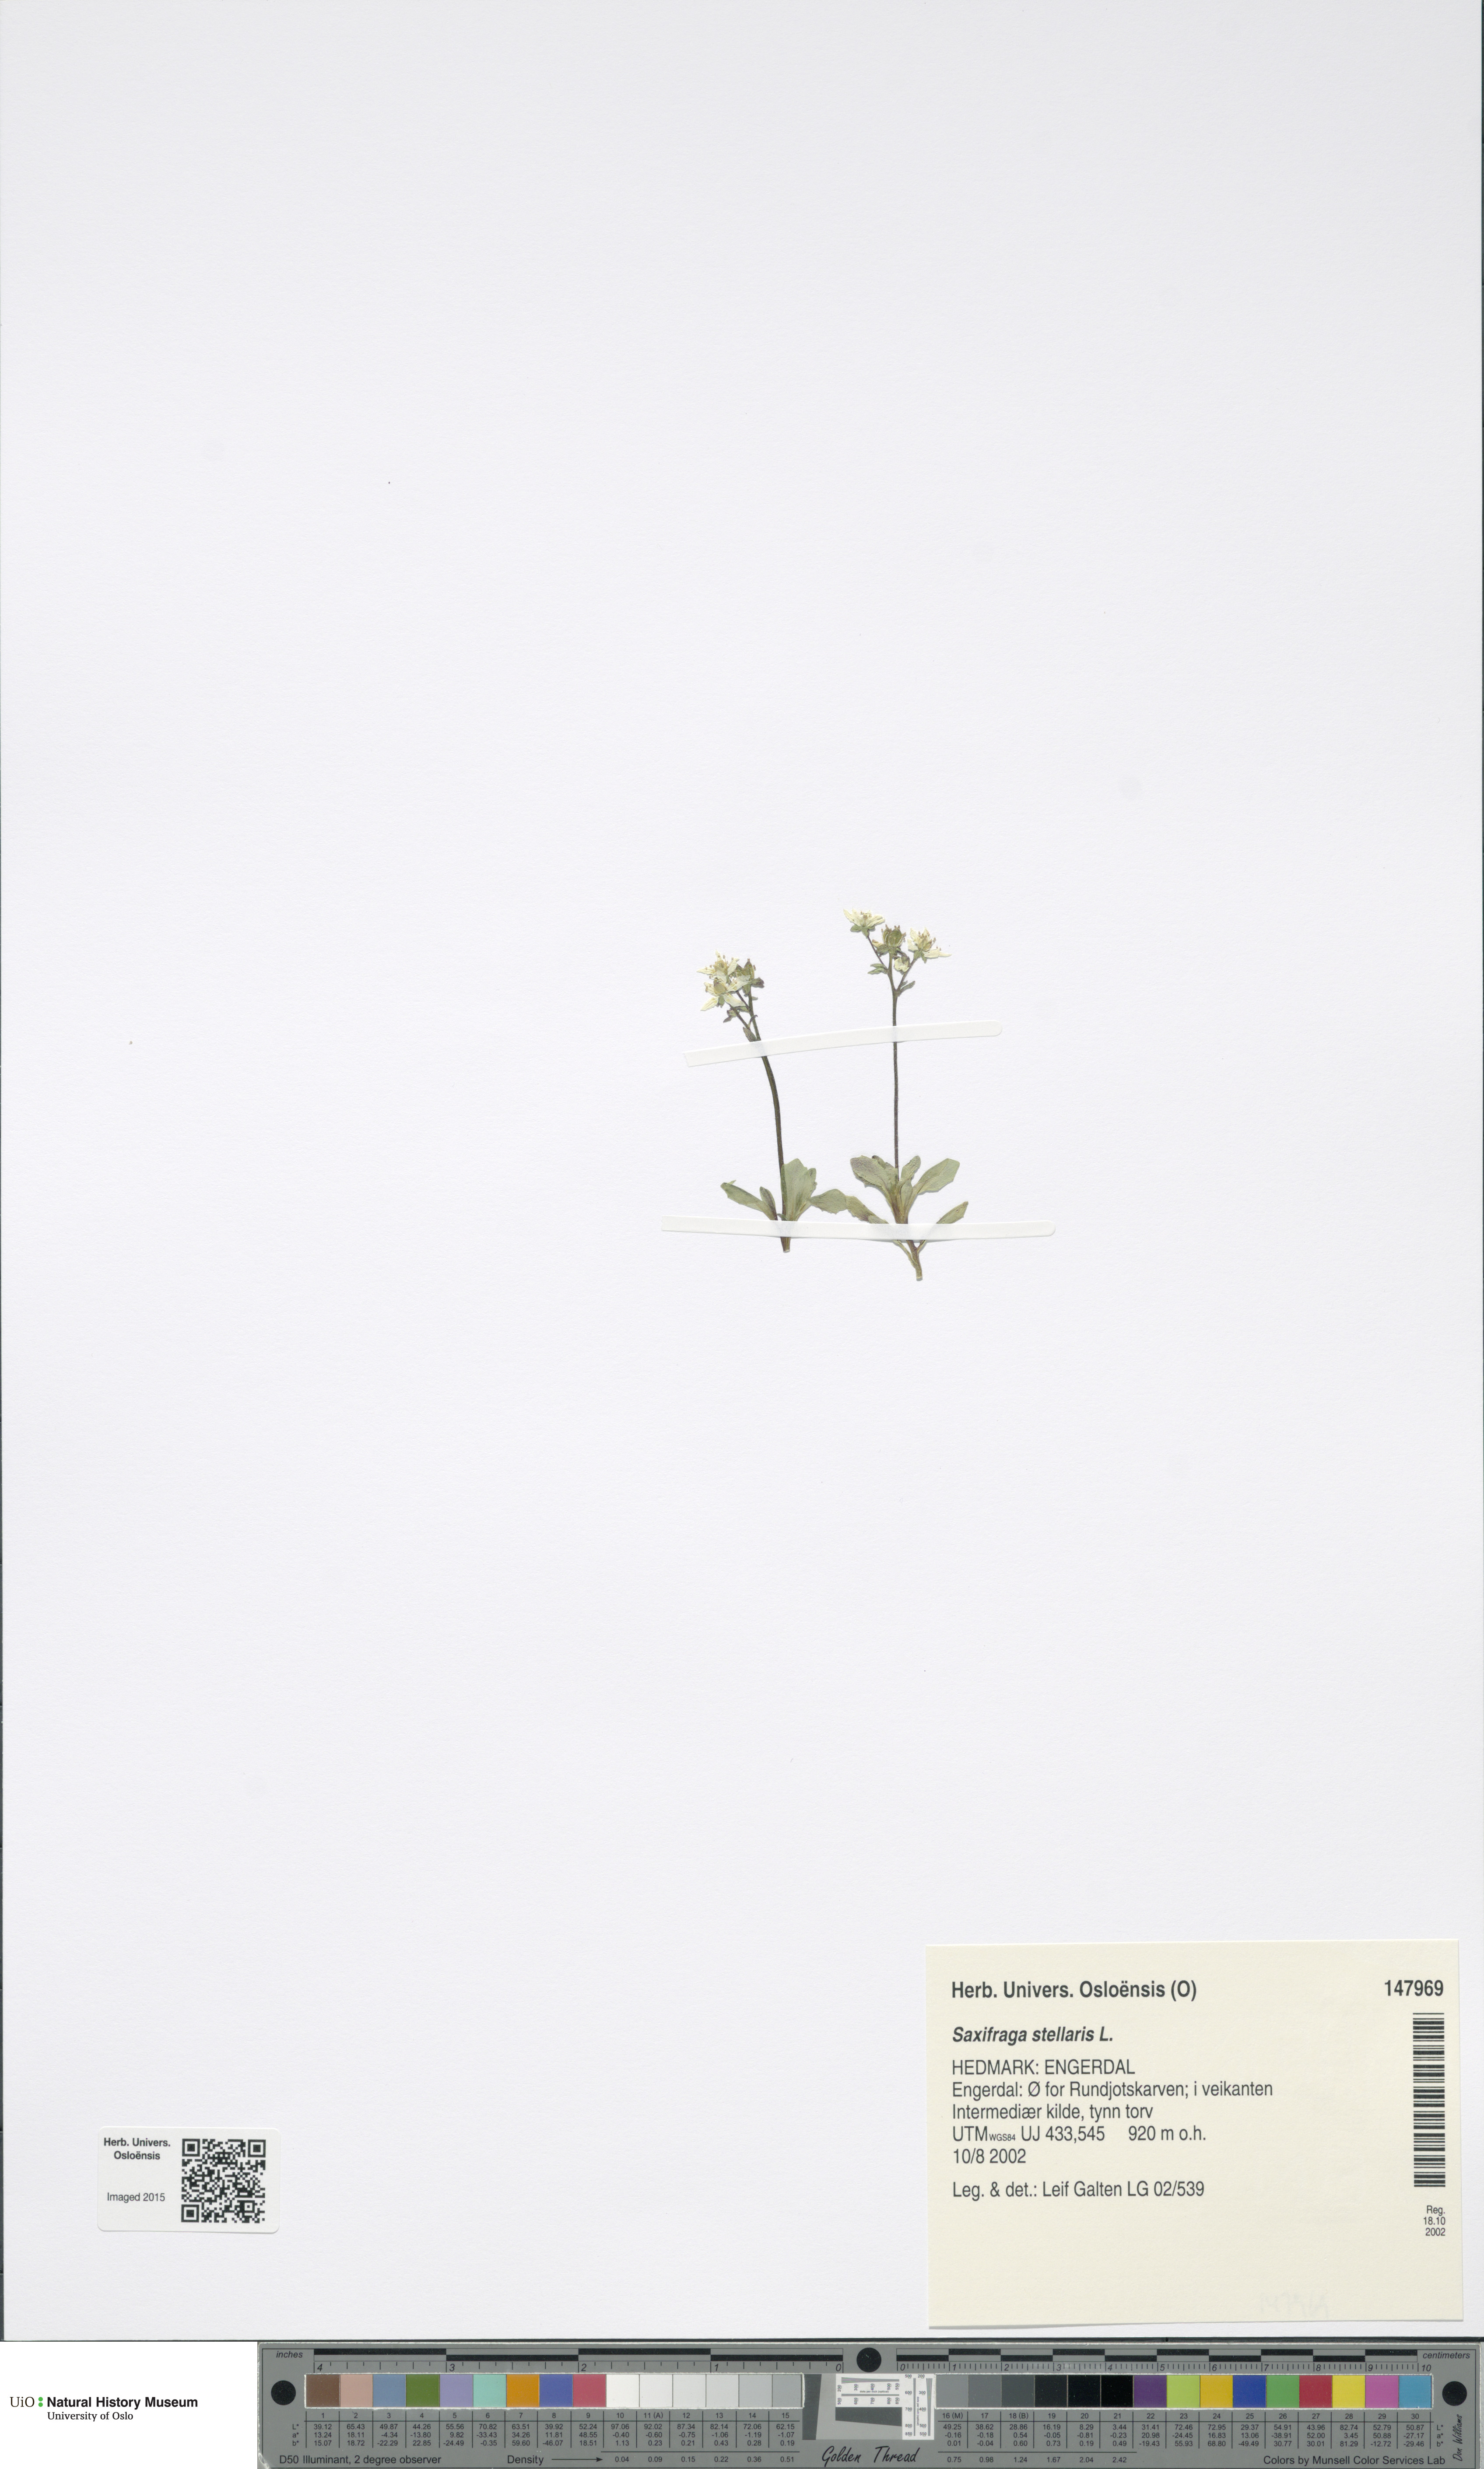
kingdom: Plantae
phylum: Tracheophyta
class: Magnoliopsida
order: Saxifragales
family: Saxifragaceae
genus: Micranthes
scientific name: Micranthes stellaris
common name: Starry saxifrage
